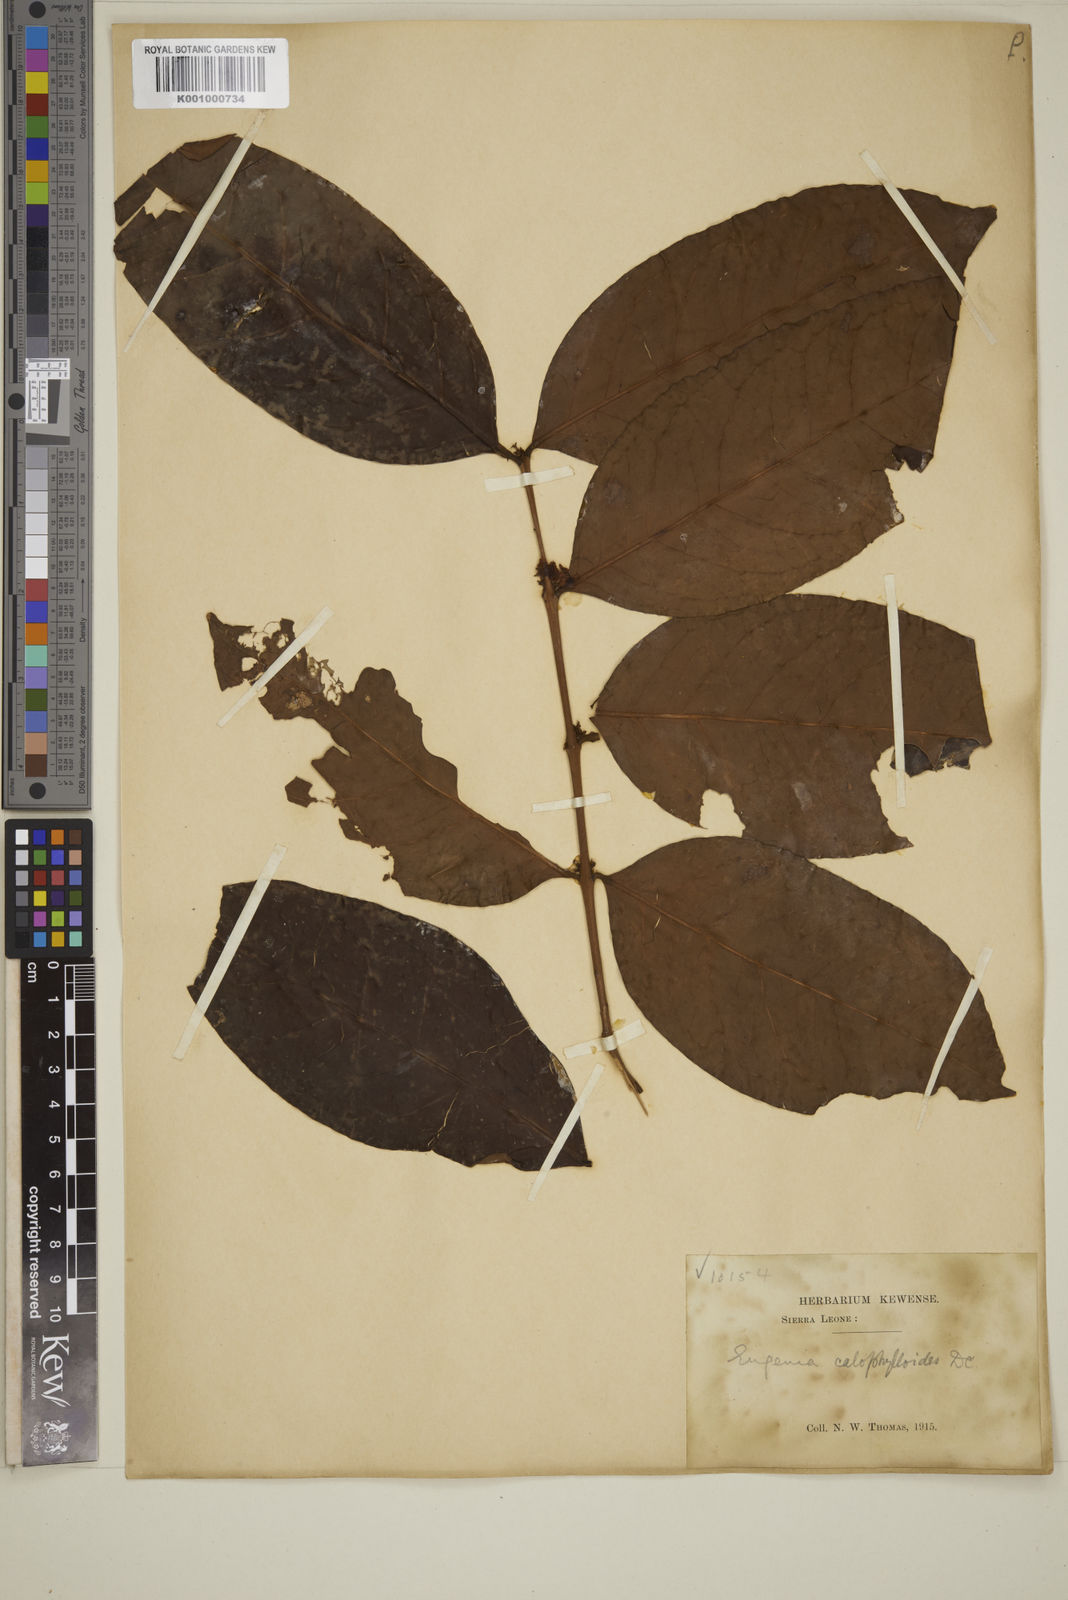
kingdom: Plantae
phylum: Tracheophyta
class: Magnoliopsida
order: Myrtales
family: Myrtaceae
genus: Eugenia
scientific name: Eugenia calophylloides
